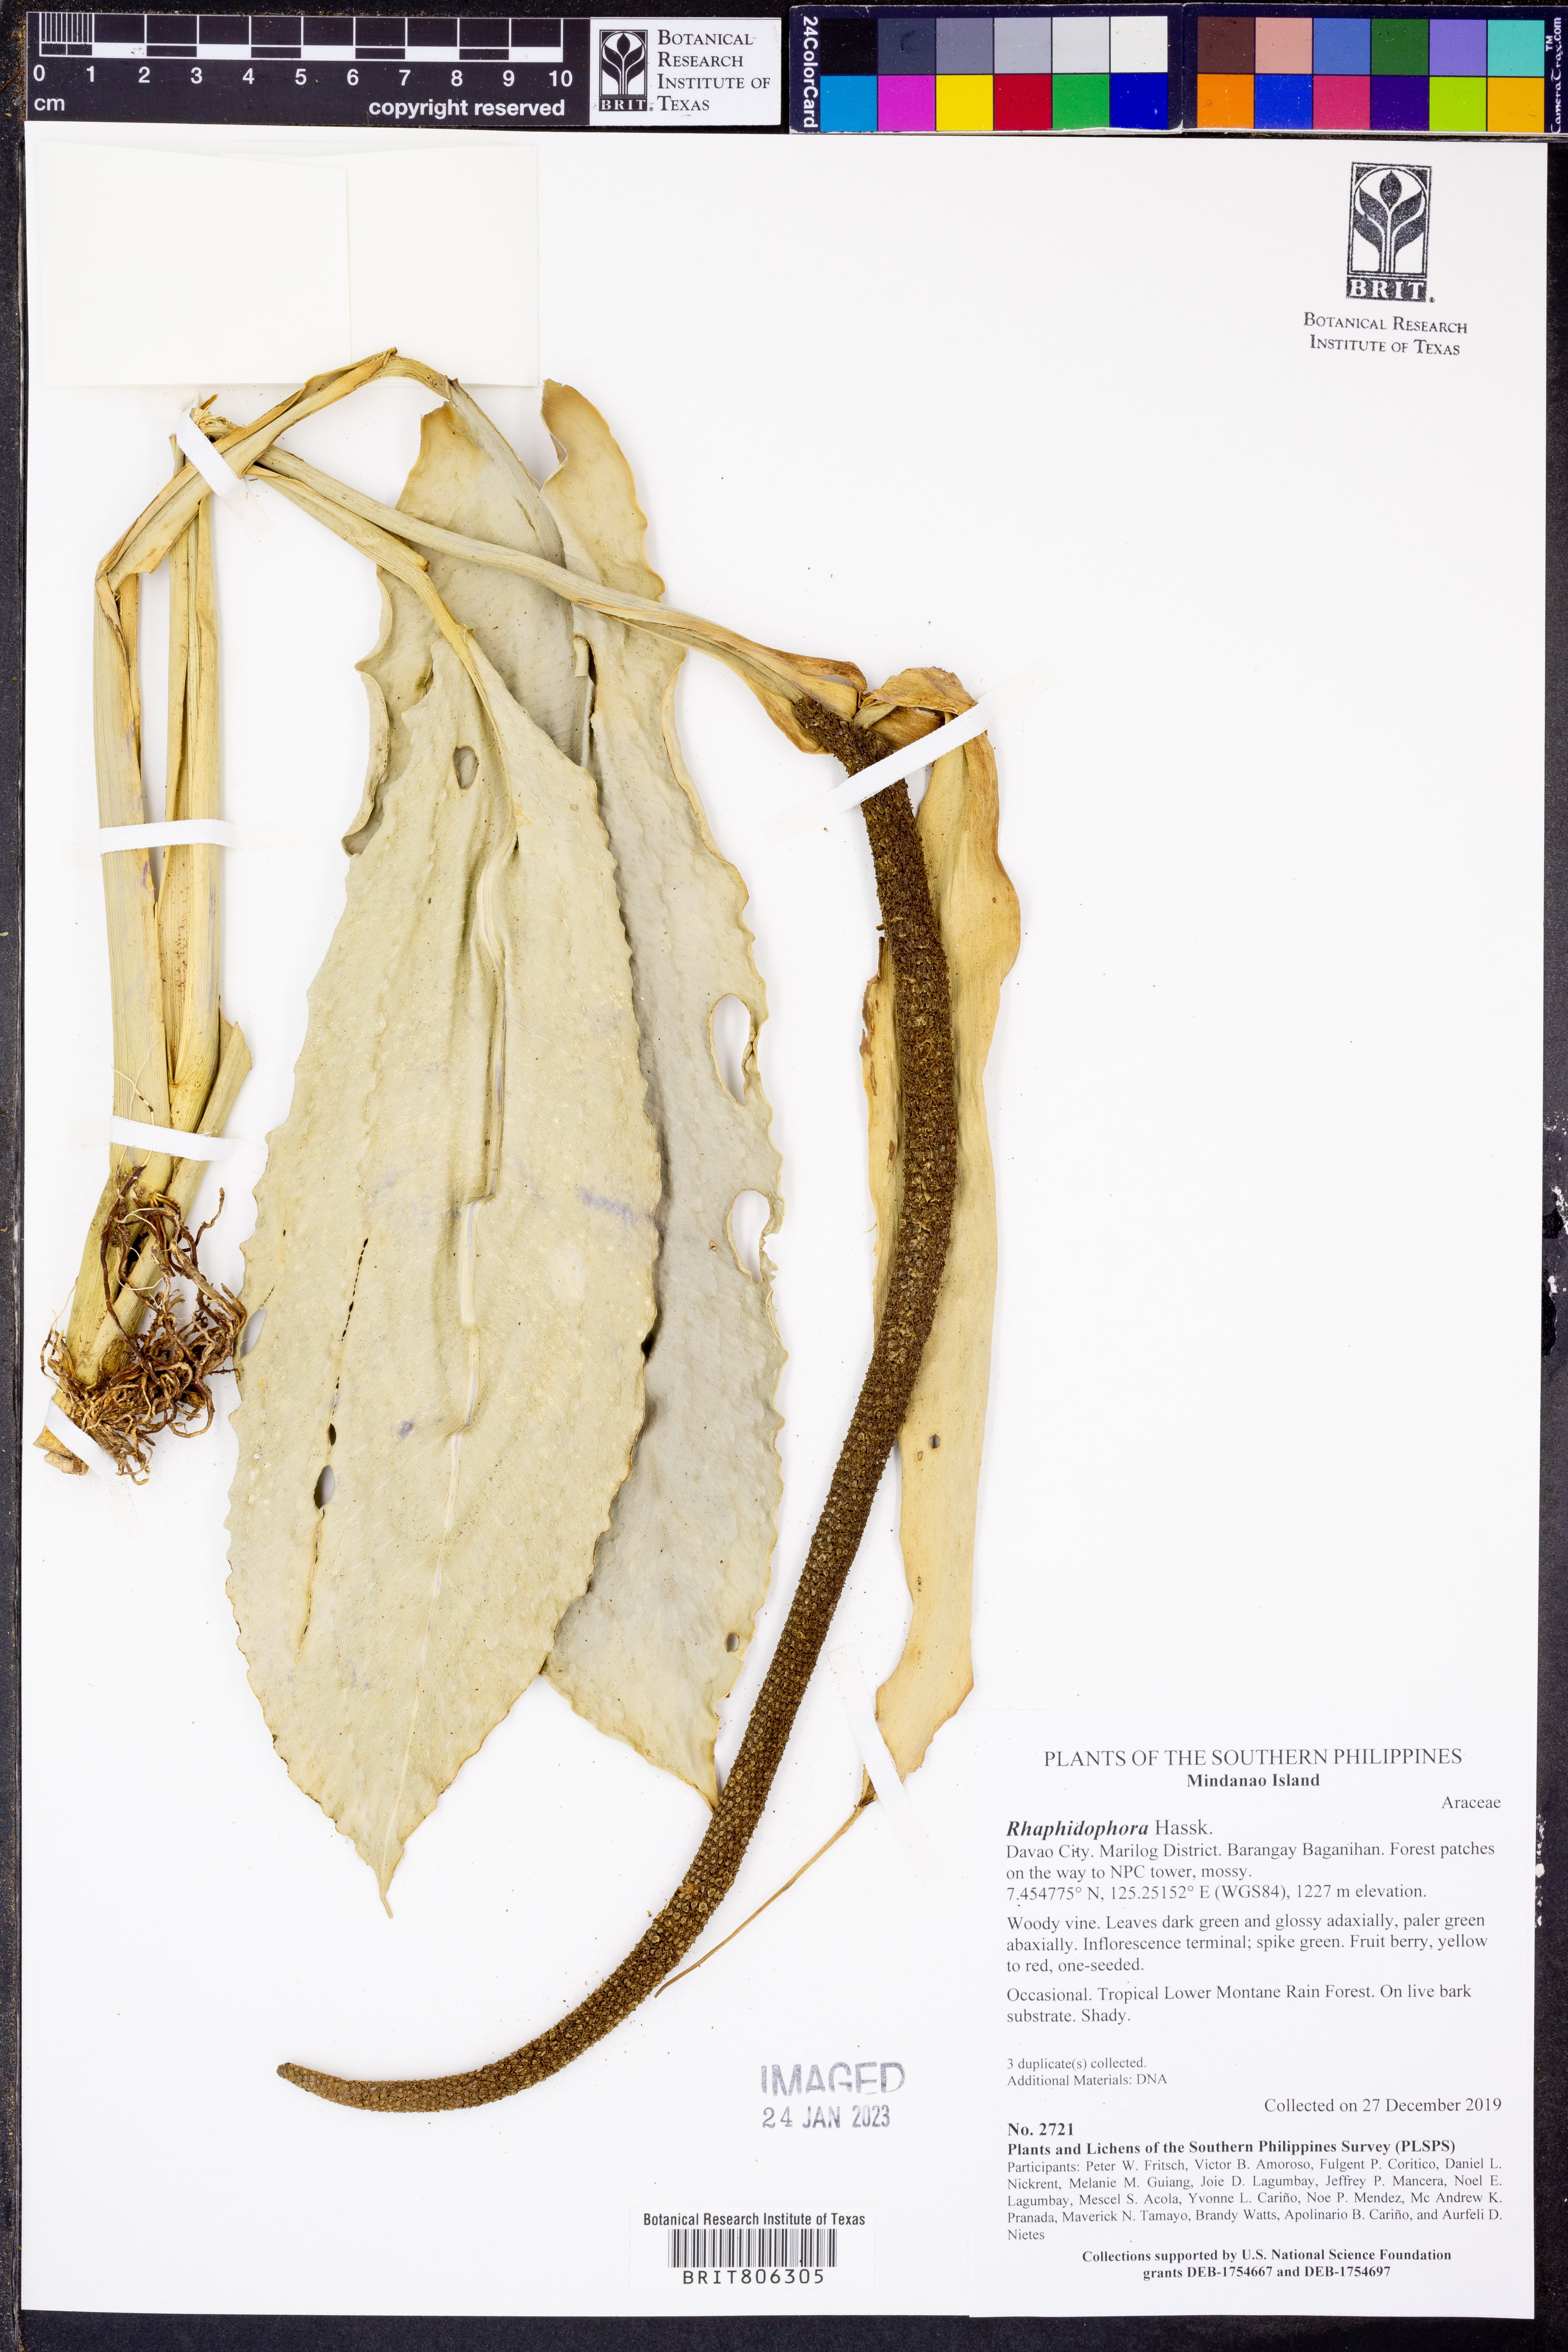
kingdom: Plantae
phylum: Tracheophyta
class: Liliopsida
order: Alismatales
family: Araceae
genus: Rhaphidophora
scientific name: Rhaphidophora
